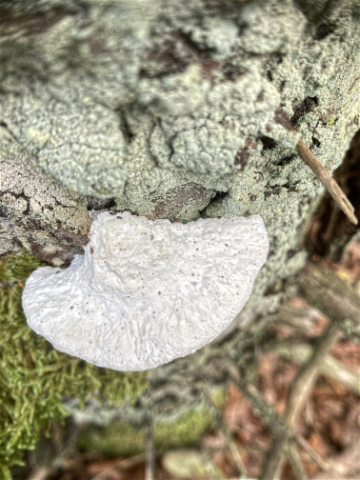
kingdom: Fungi
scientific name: Fungi
